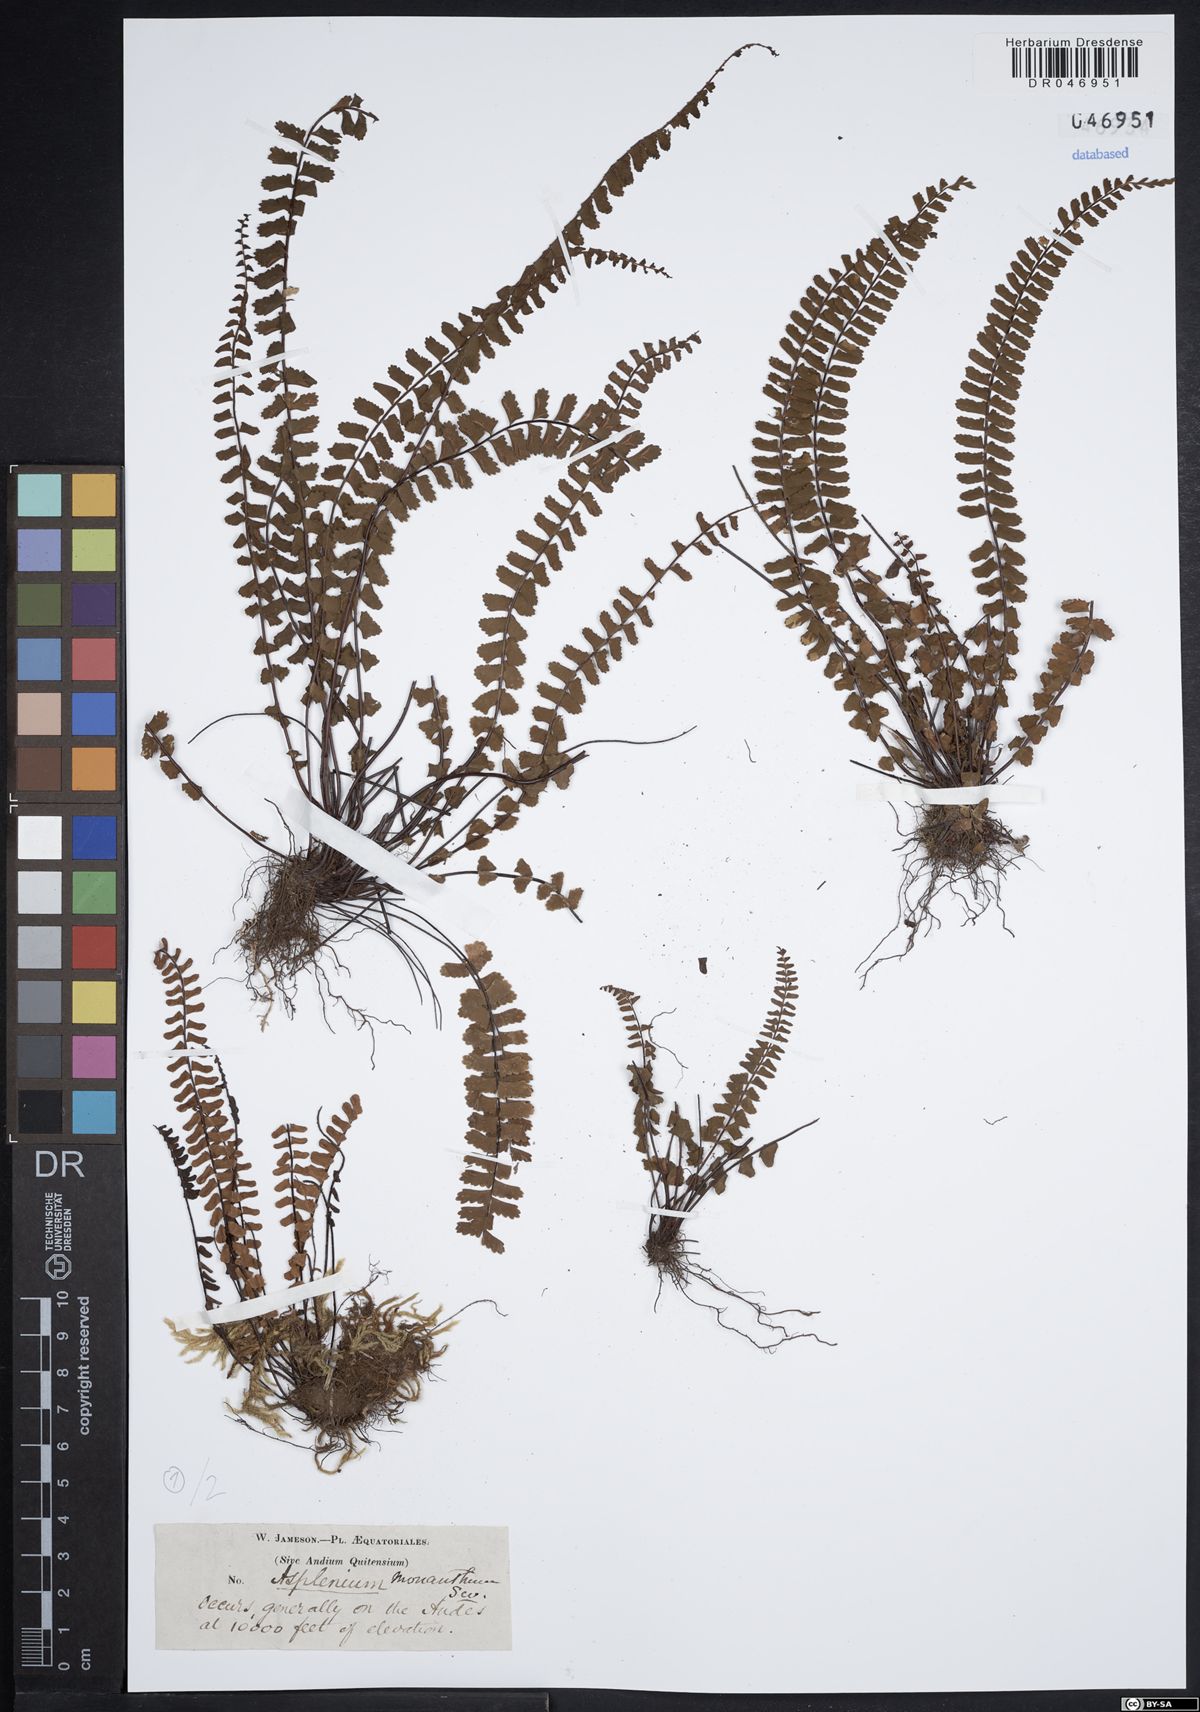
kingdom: Plantae
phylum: Tracheophyta
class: Polypodiopsida
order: Polypodiales
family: Aspleniaceae
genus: Asplenium
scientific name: Asplenium monanthes
